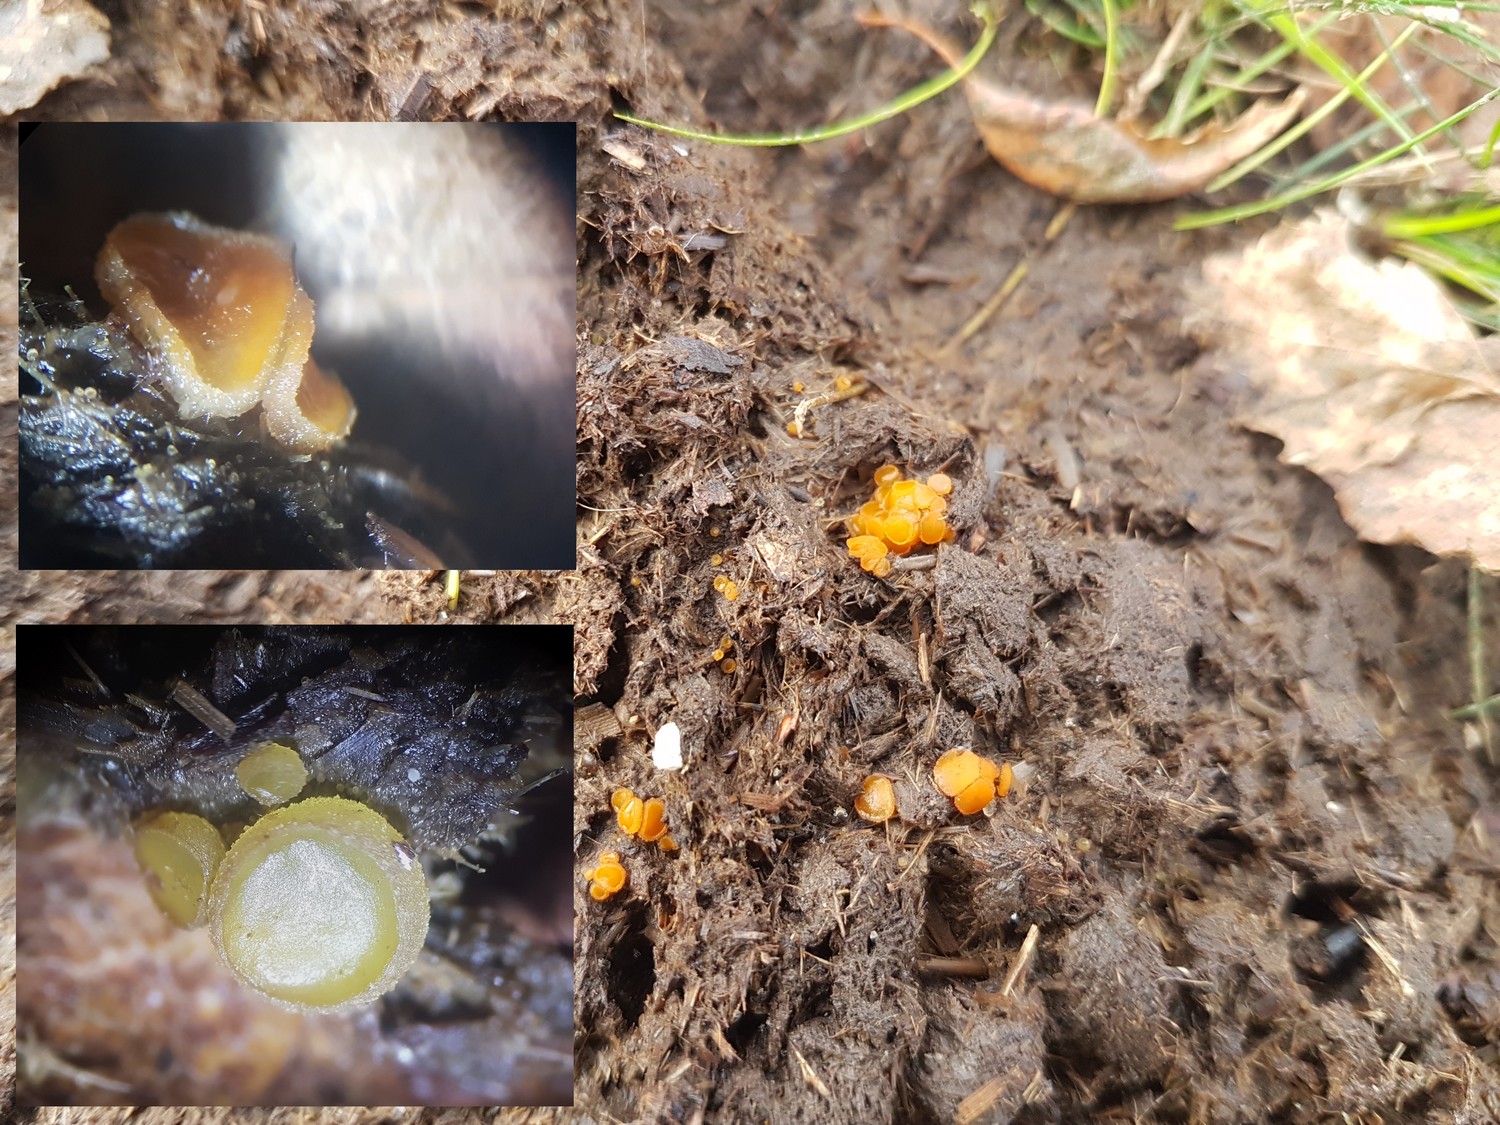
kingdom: Fungi
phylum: Ascomycota
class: Pezizomycetes
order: Pezizales
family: Pyronemataceae
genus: Cheilymenia
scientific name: Cheilymenia granulata
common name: møgbæger
